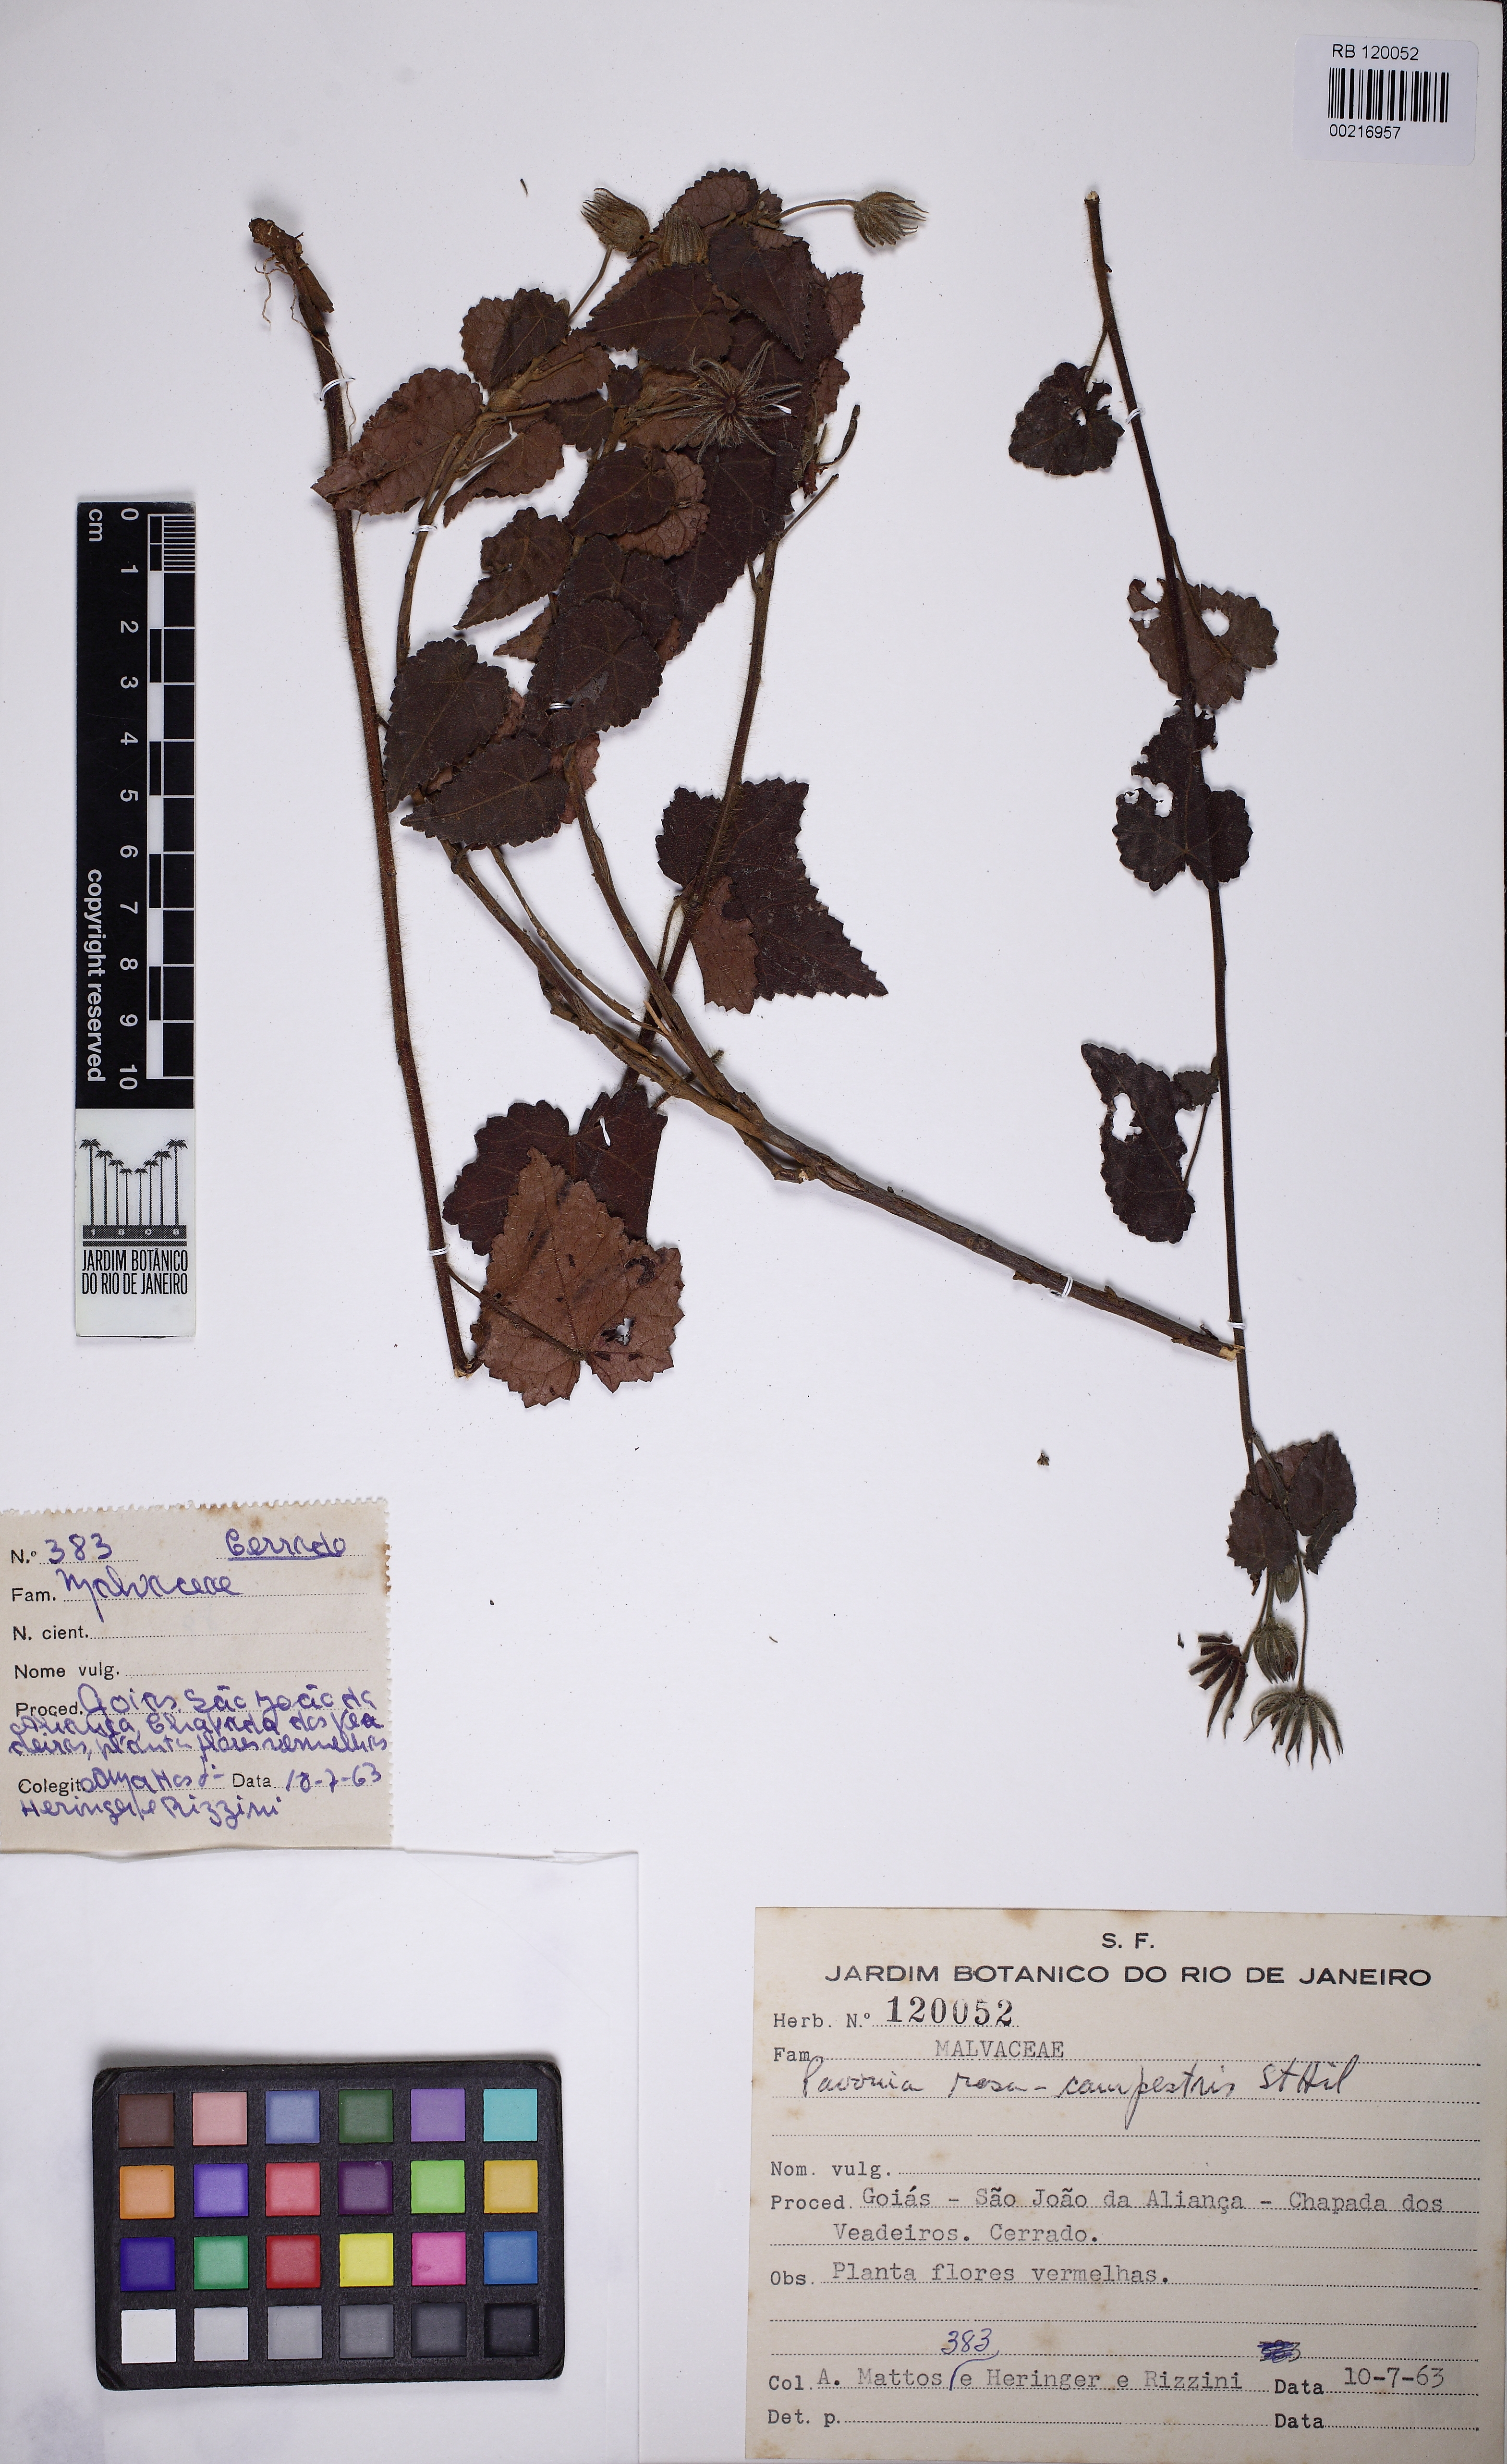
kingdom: Plantae
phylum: Tracheophyta
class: Magnoliopsida
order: Malvales
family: Malvaceae
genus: Pavonia
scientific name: Pavonia rosa-campestris
